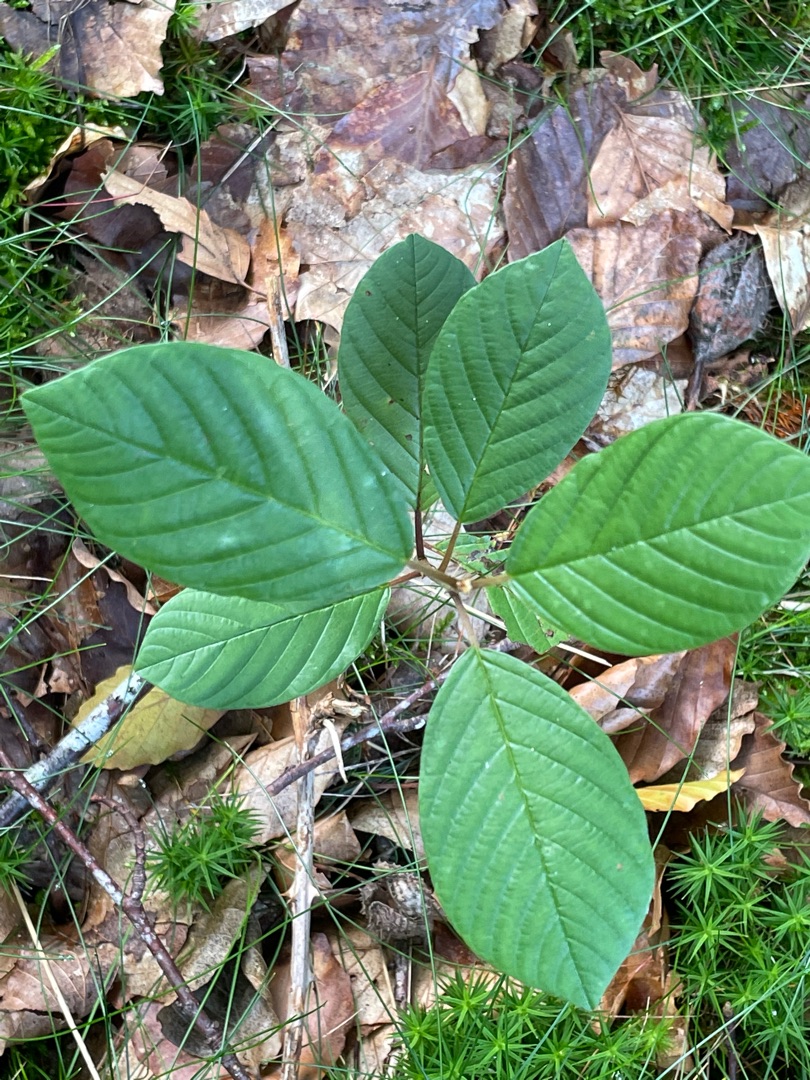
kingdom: Plantae
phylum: Tracheophyta
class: Magnoliopsida
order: Rosales
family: Rhamnaceae
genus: Frangula
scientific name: Frangula alnus
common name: Tørst
